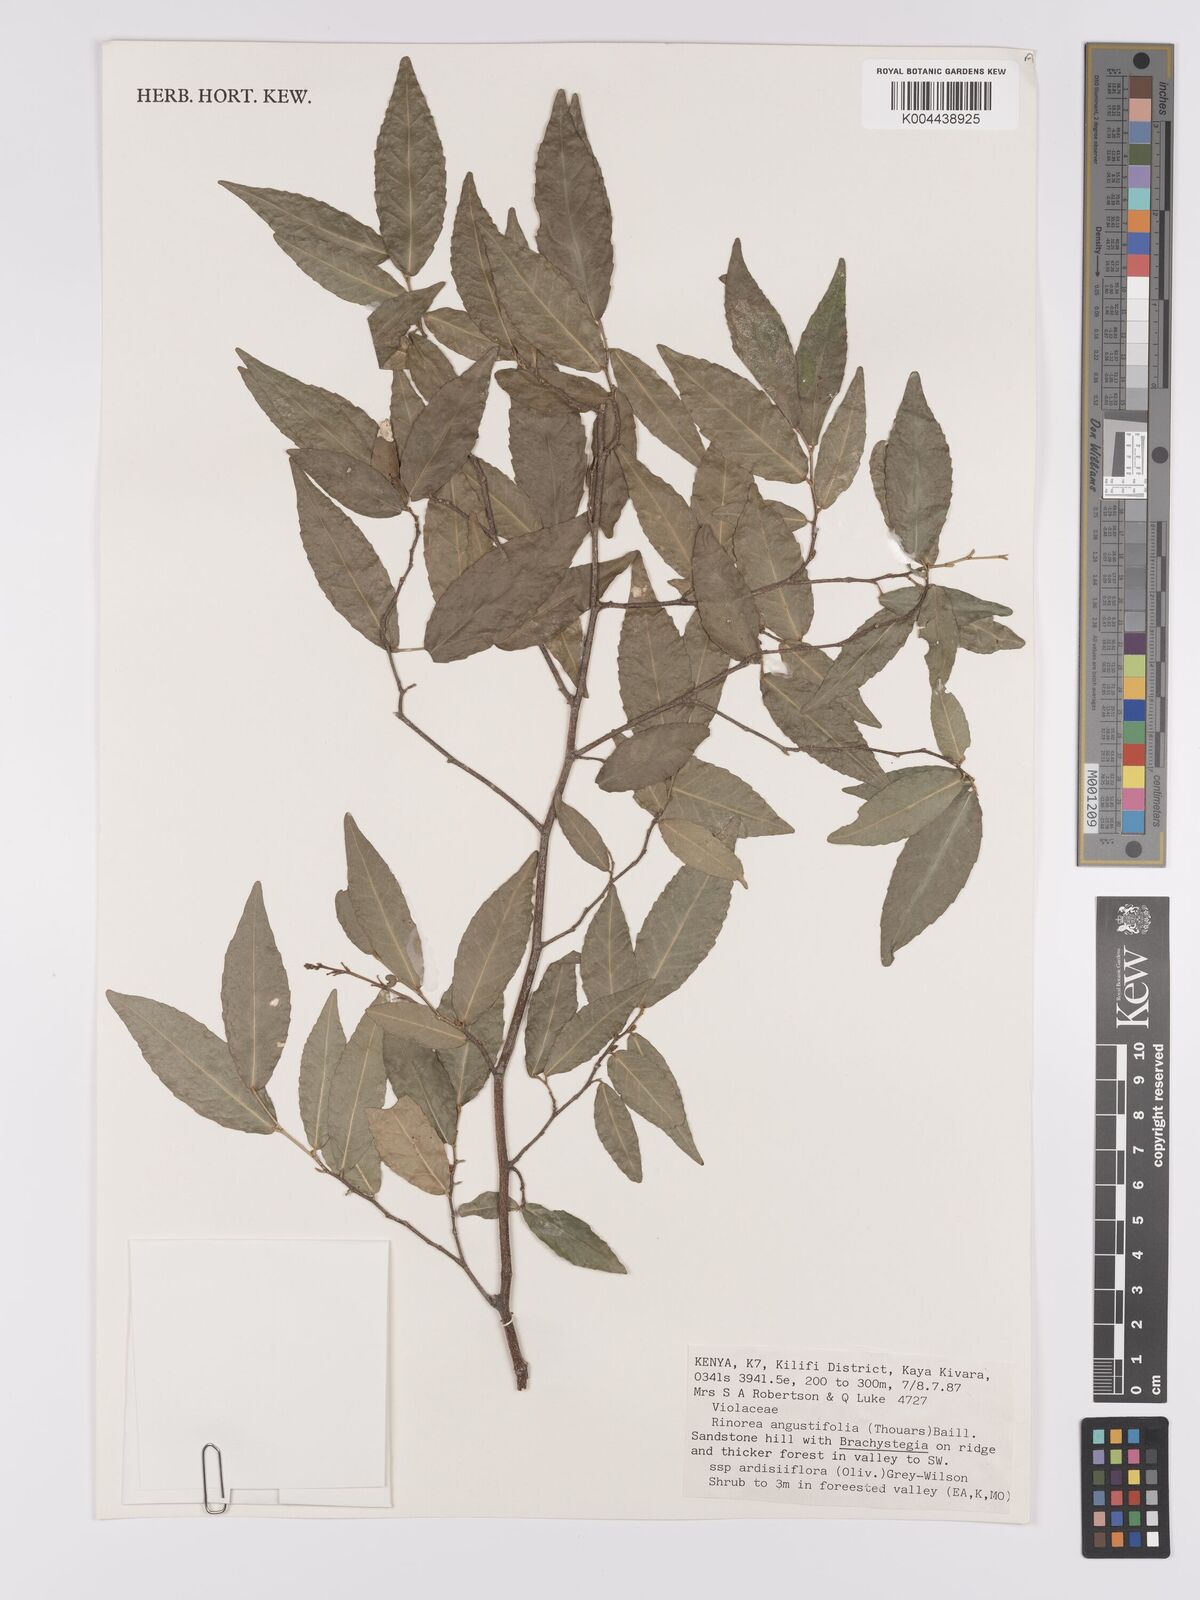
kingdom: Plantae
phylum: Tracheophyta
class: Magnoliopsida
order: Malpighiales
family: Violaceae
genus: Rinorea
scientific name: Rinorea angustifolia
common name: White violet-bush
